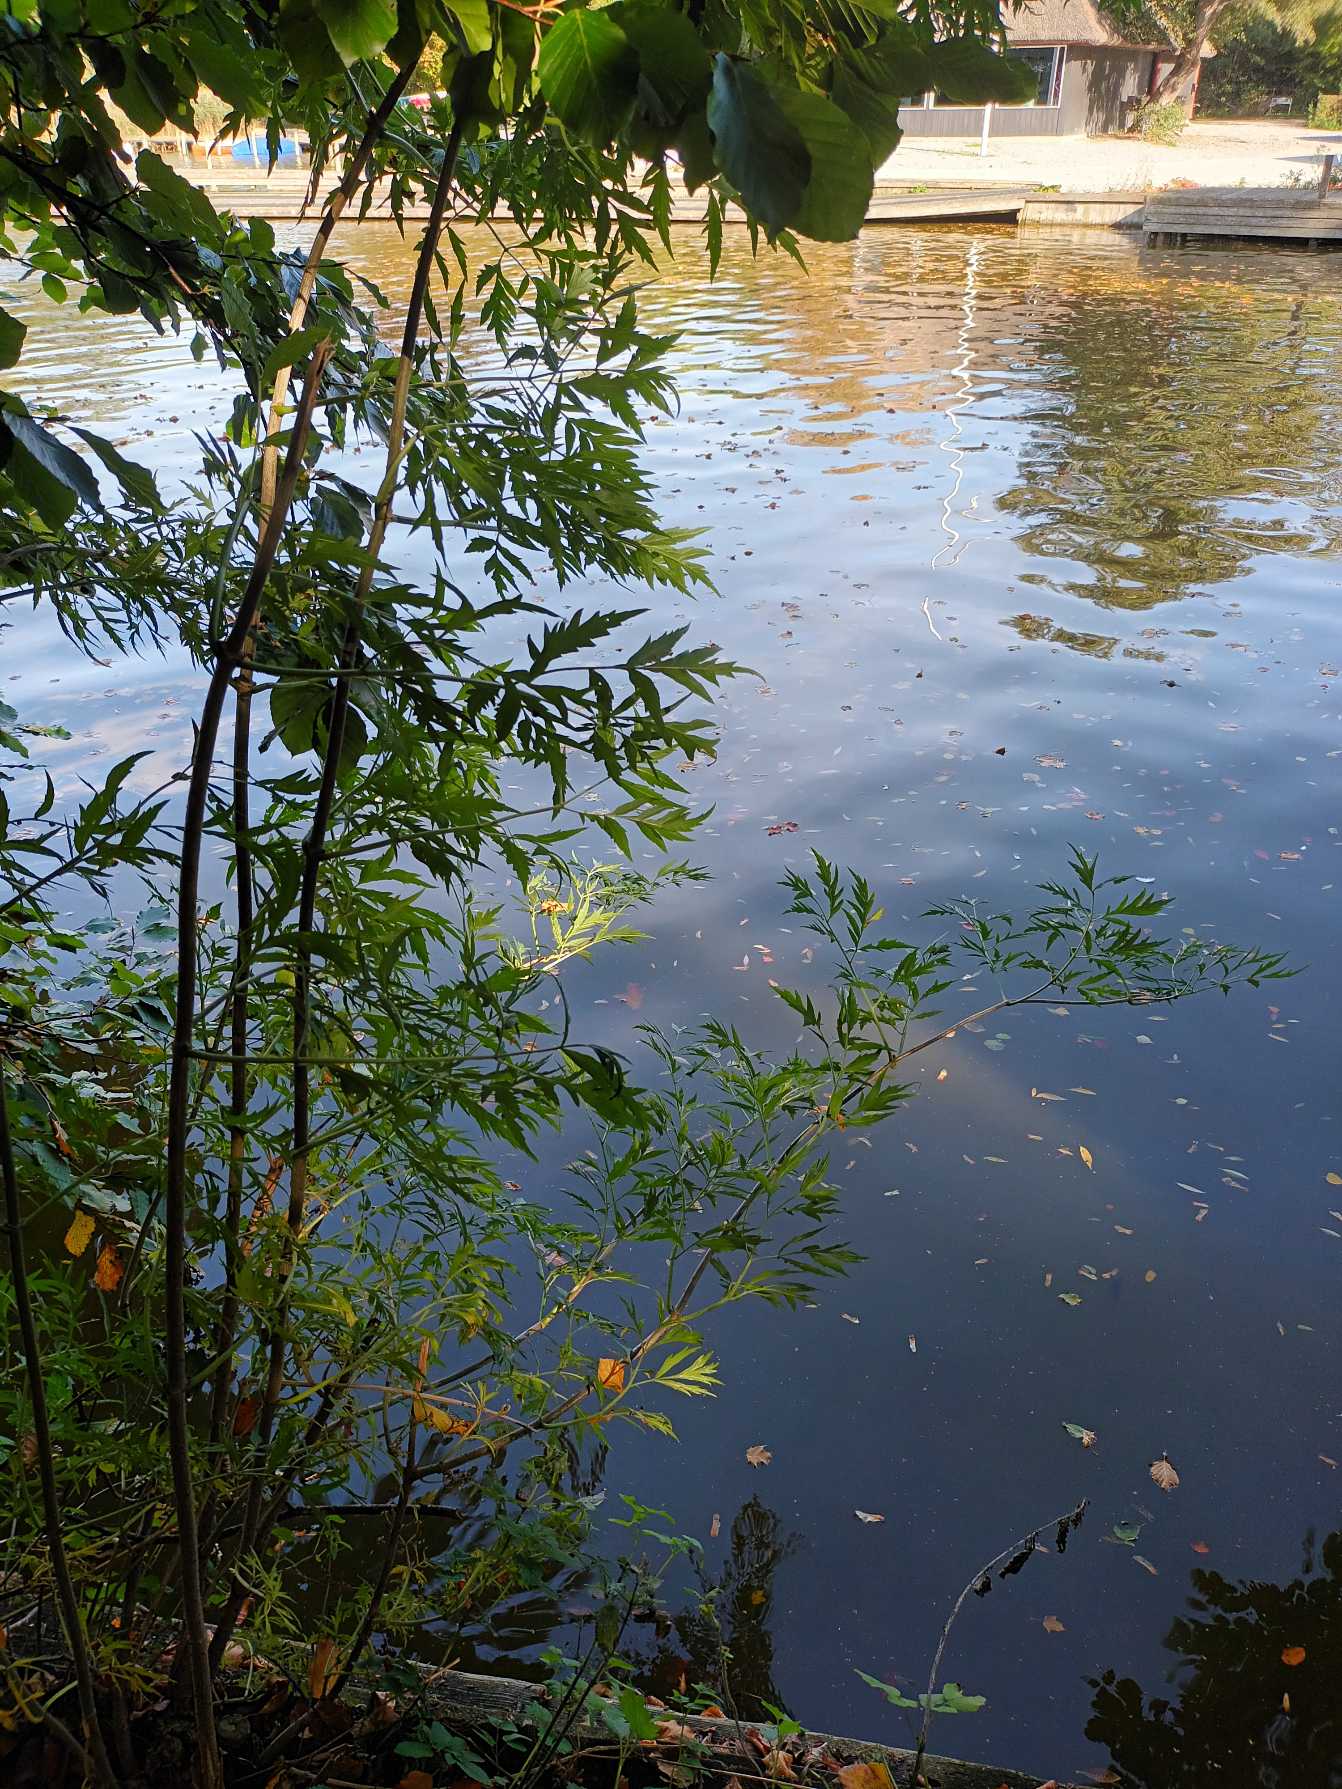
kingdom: Plantae
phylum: Tracheophyta
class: Magnoliopsida
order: Dipsacales
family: Viburnaceae
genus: Sambucus
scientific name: Sambucus nigra
